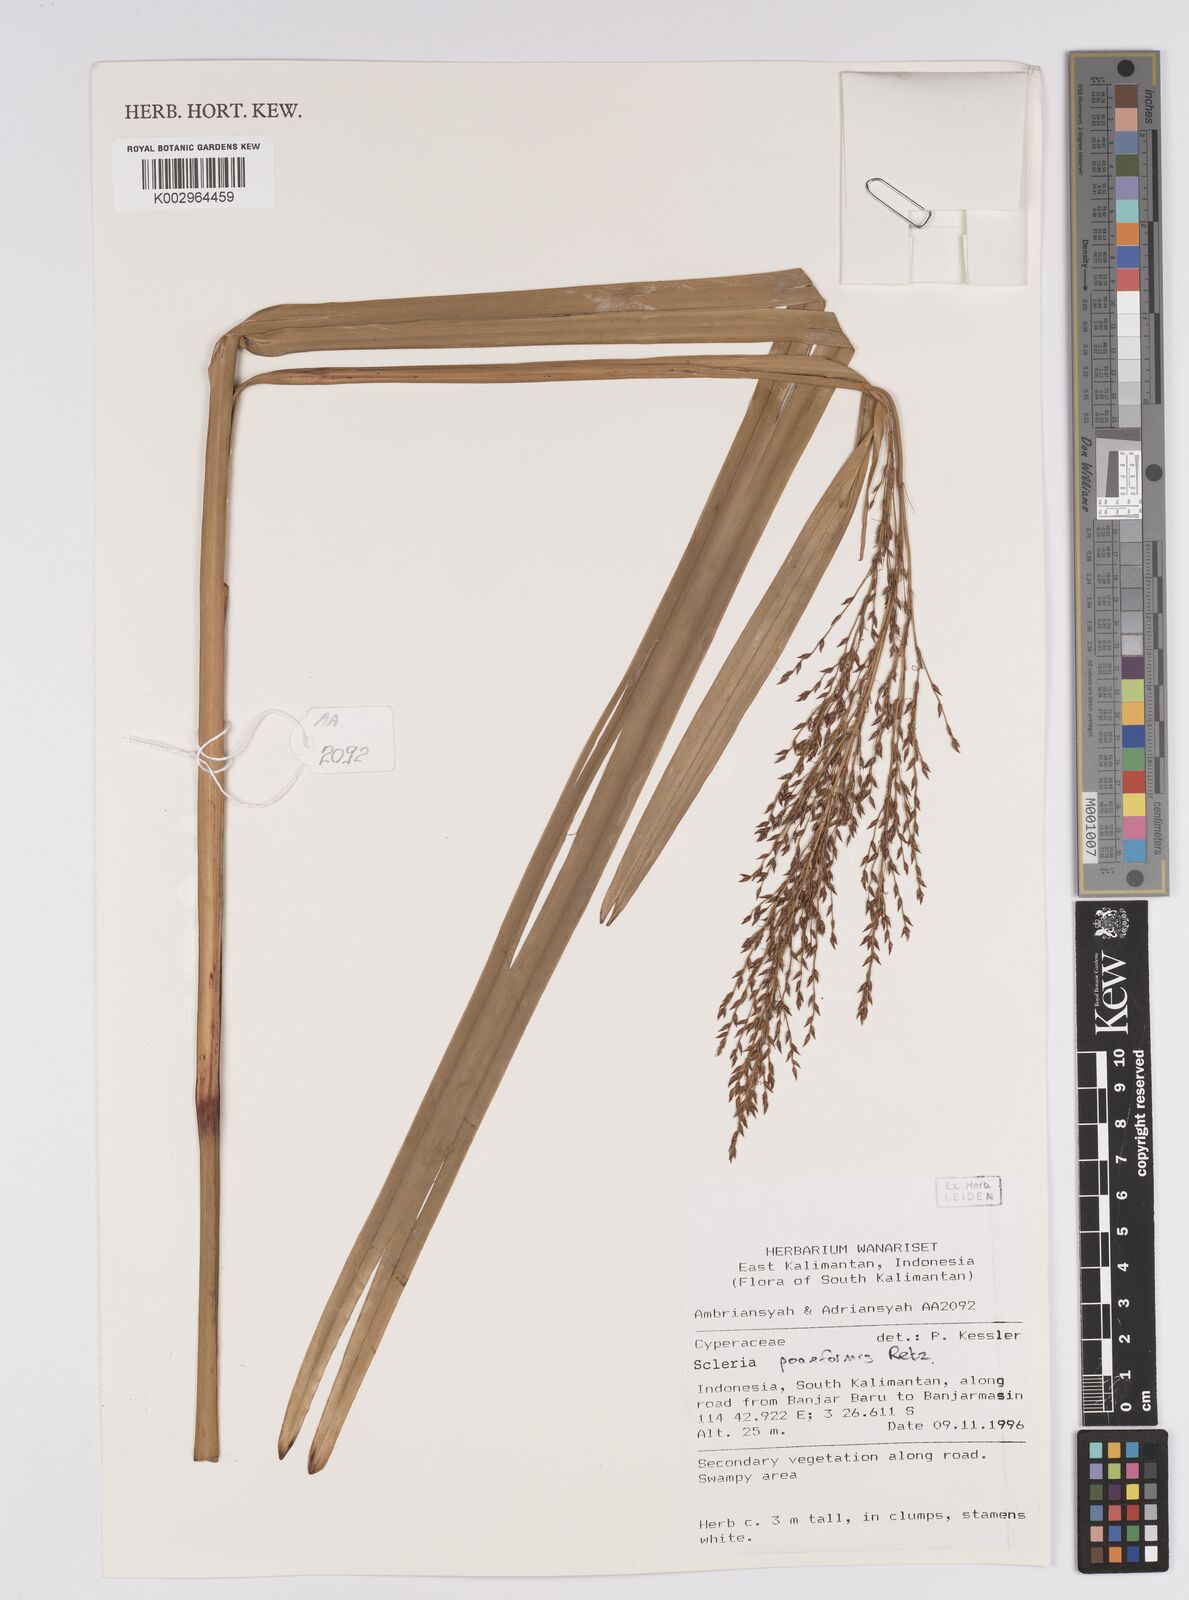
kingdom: Plantae
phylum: Tracheophyta
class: Liliopsida
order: Poales
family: Cyperaceae
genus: Scleria
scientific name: Scleria poiformis
